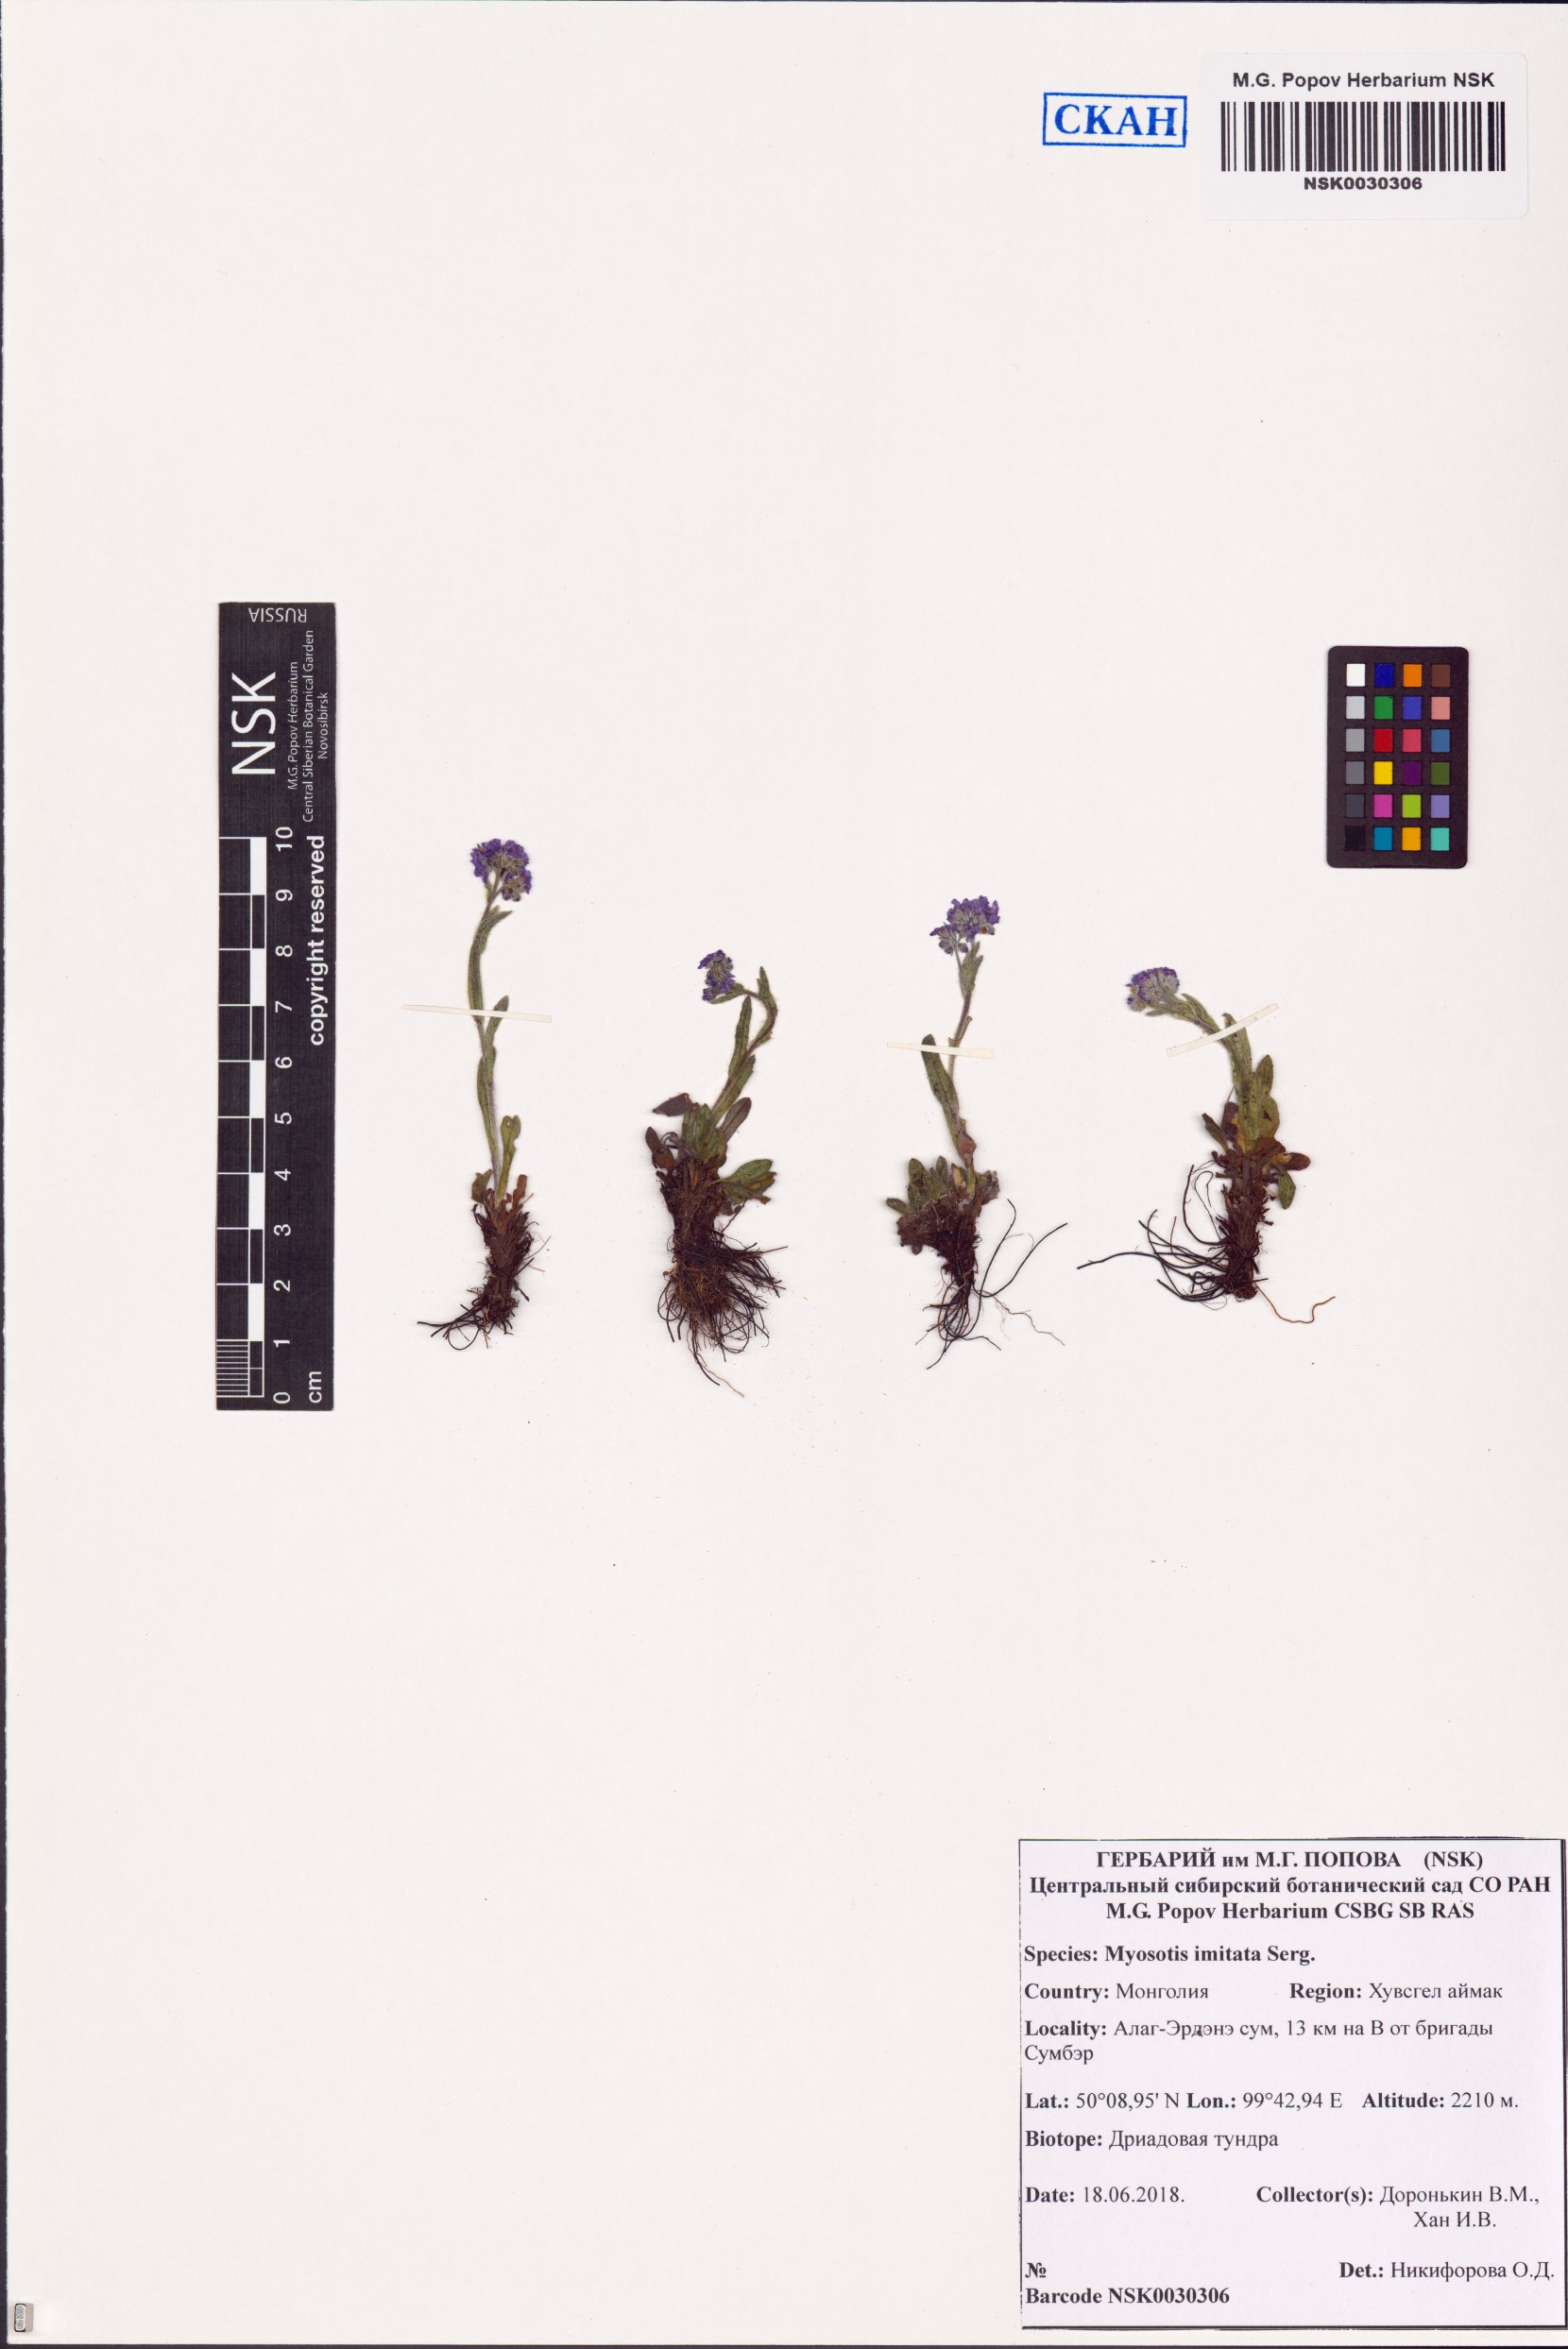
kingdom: Plantae
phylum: Tracheophyta
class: Magnoliopsida
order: Boraginales
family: Boraginaceae
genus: Myosotis
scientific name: Myosotis imitata
